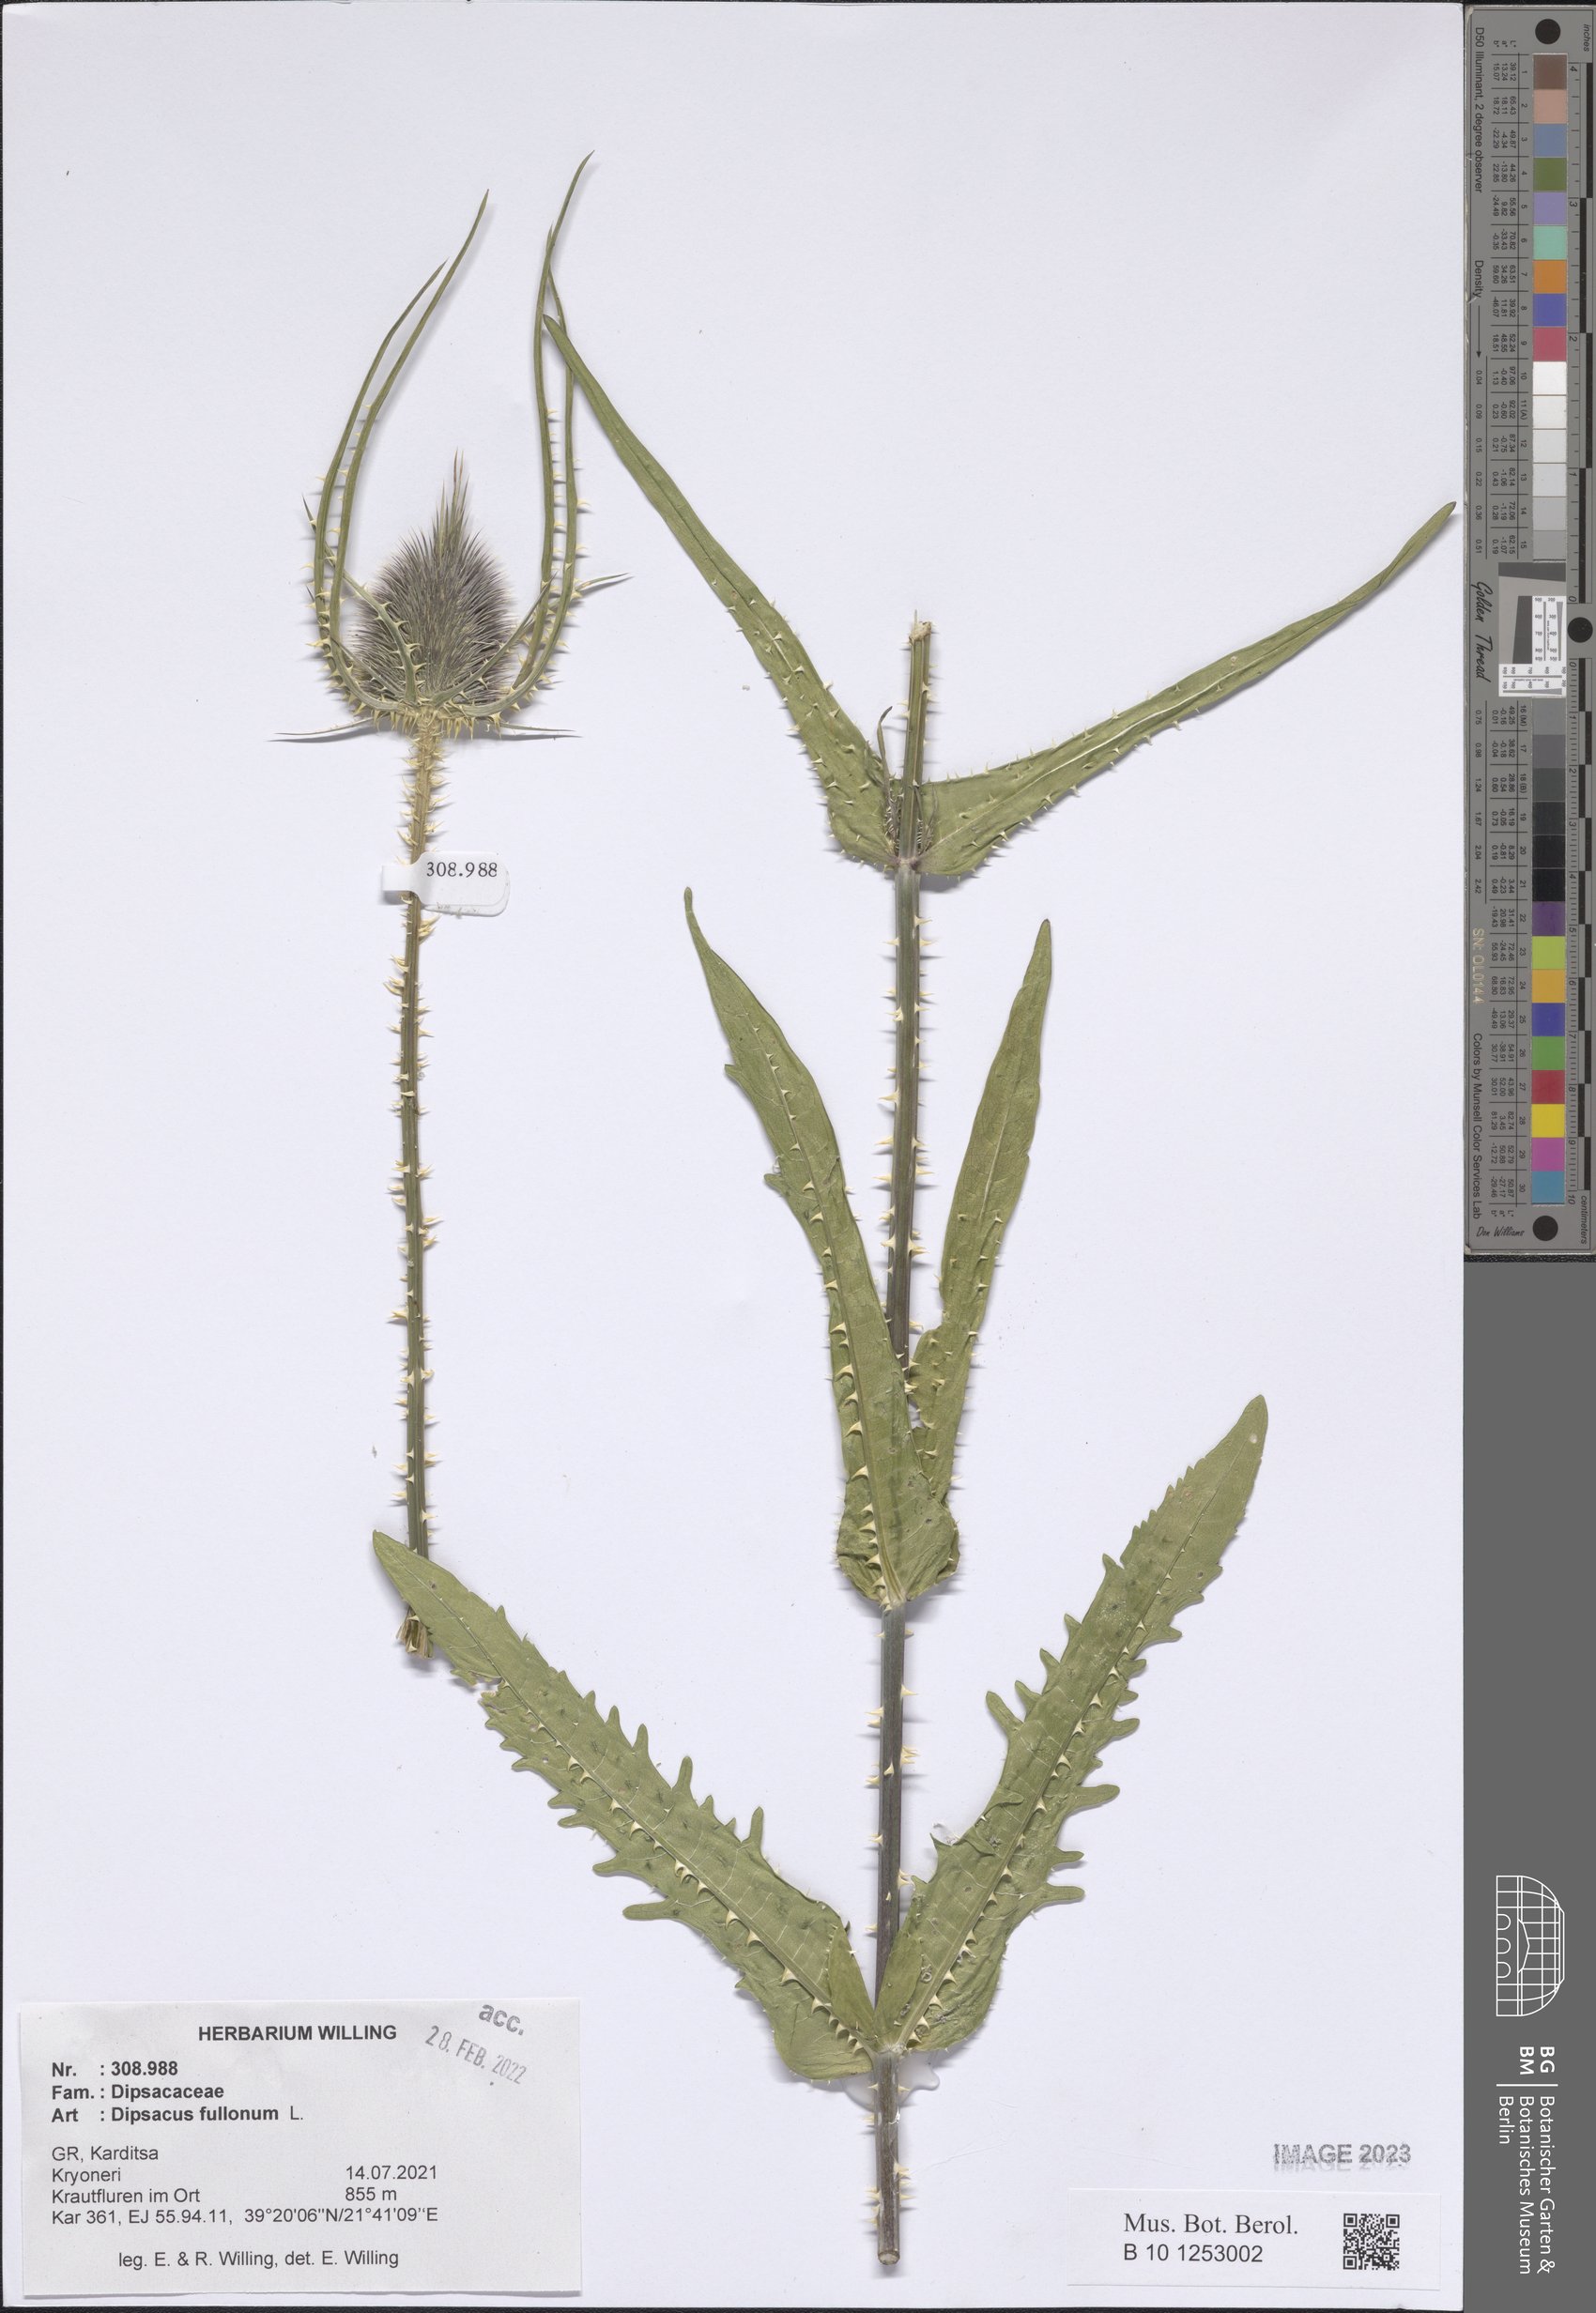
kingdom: Plantae
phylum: Tracheophyta
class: Magnoliopsida
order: Dipsacales
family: Caprifoliaceae
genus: Dipsacus
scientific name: Dipsacus fullonum
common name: Teasel
